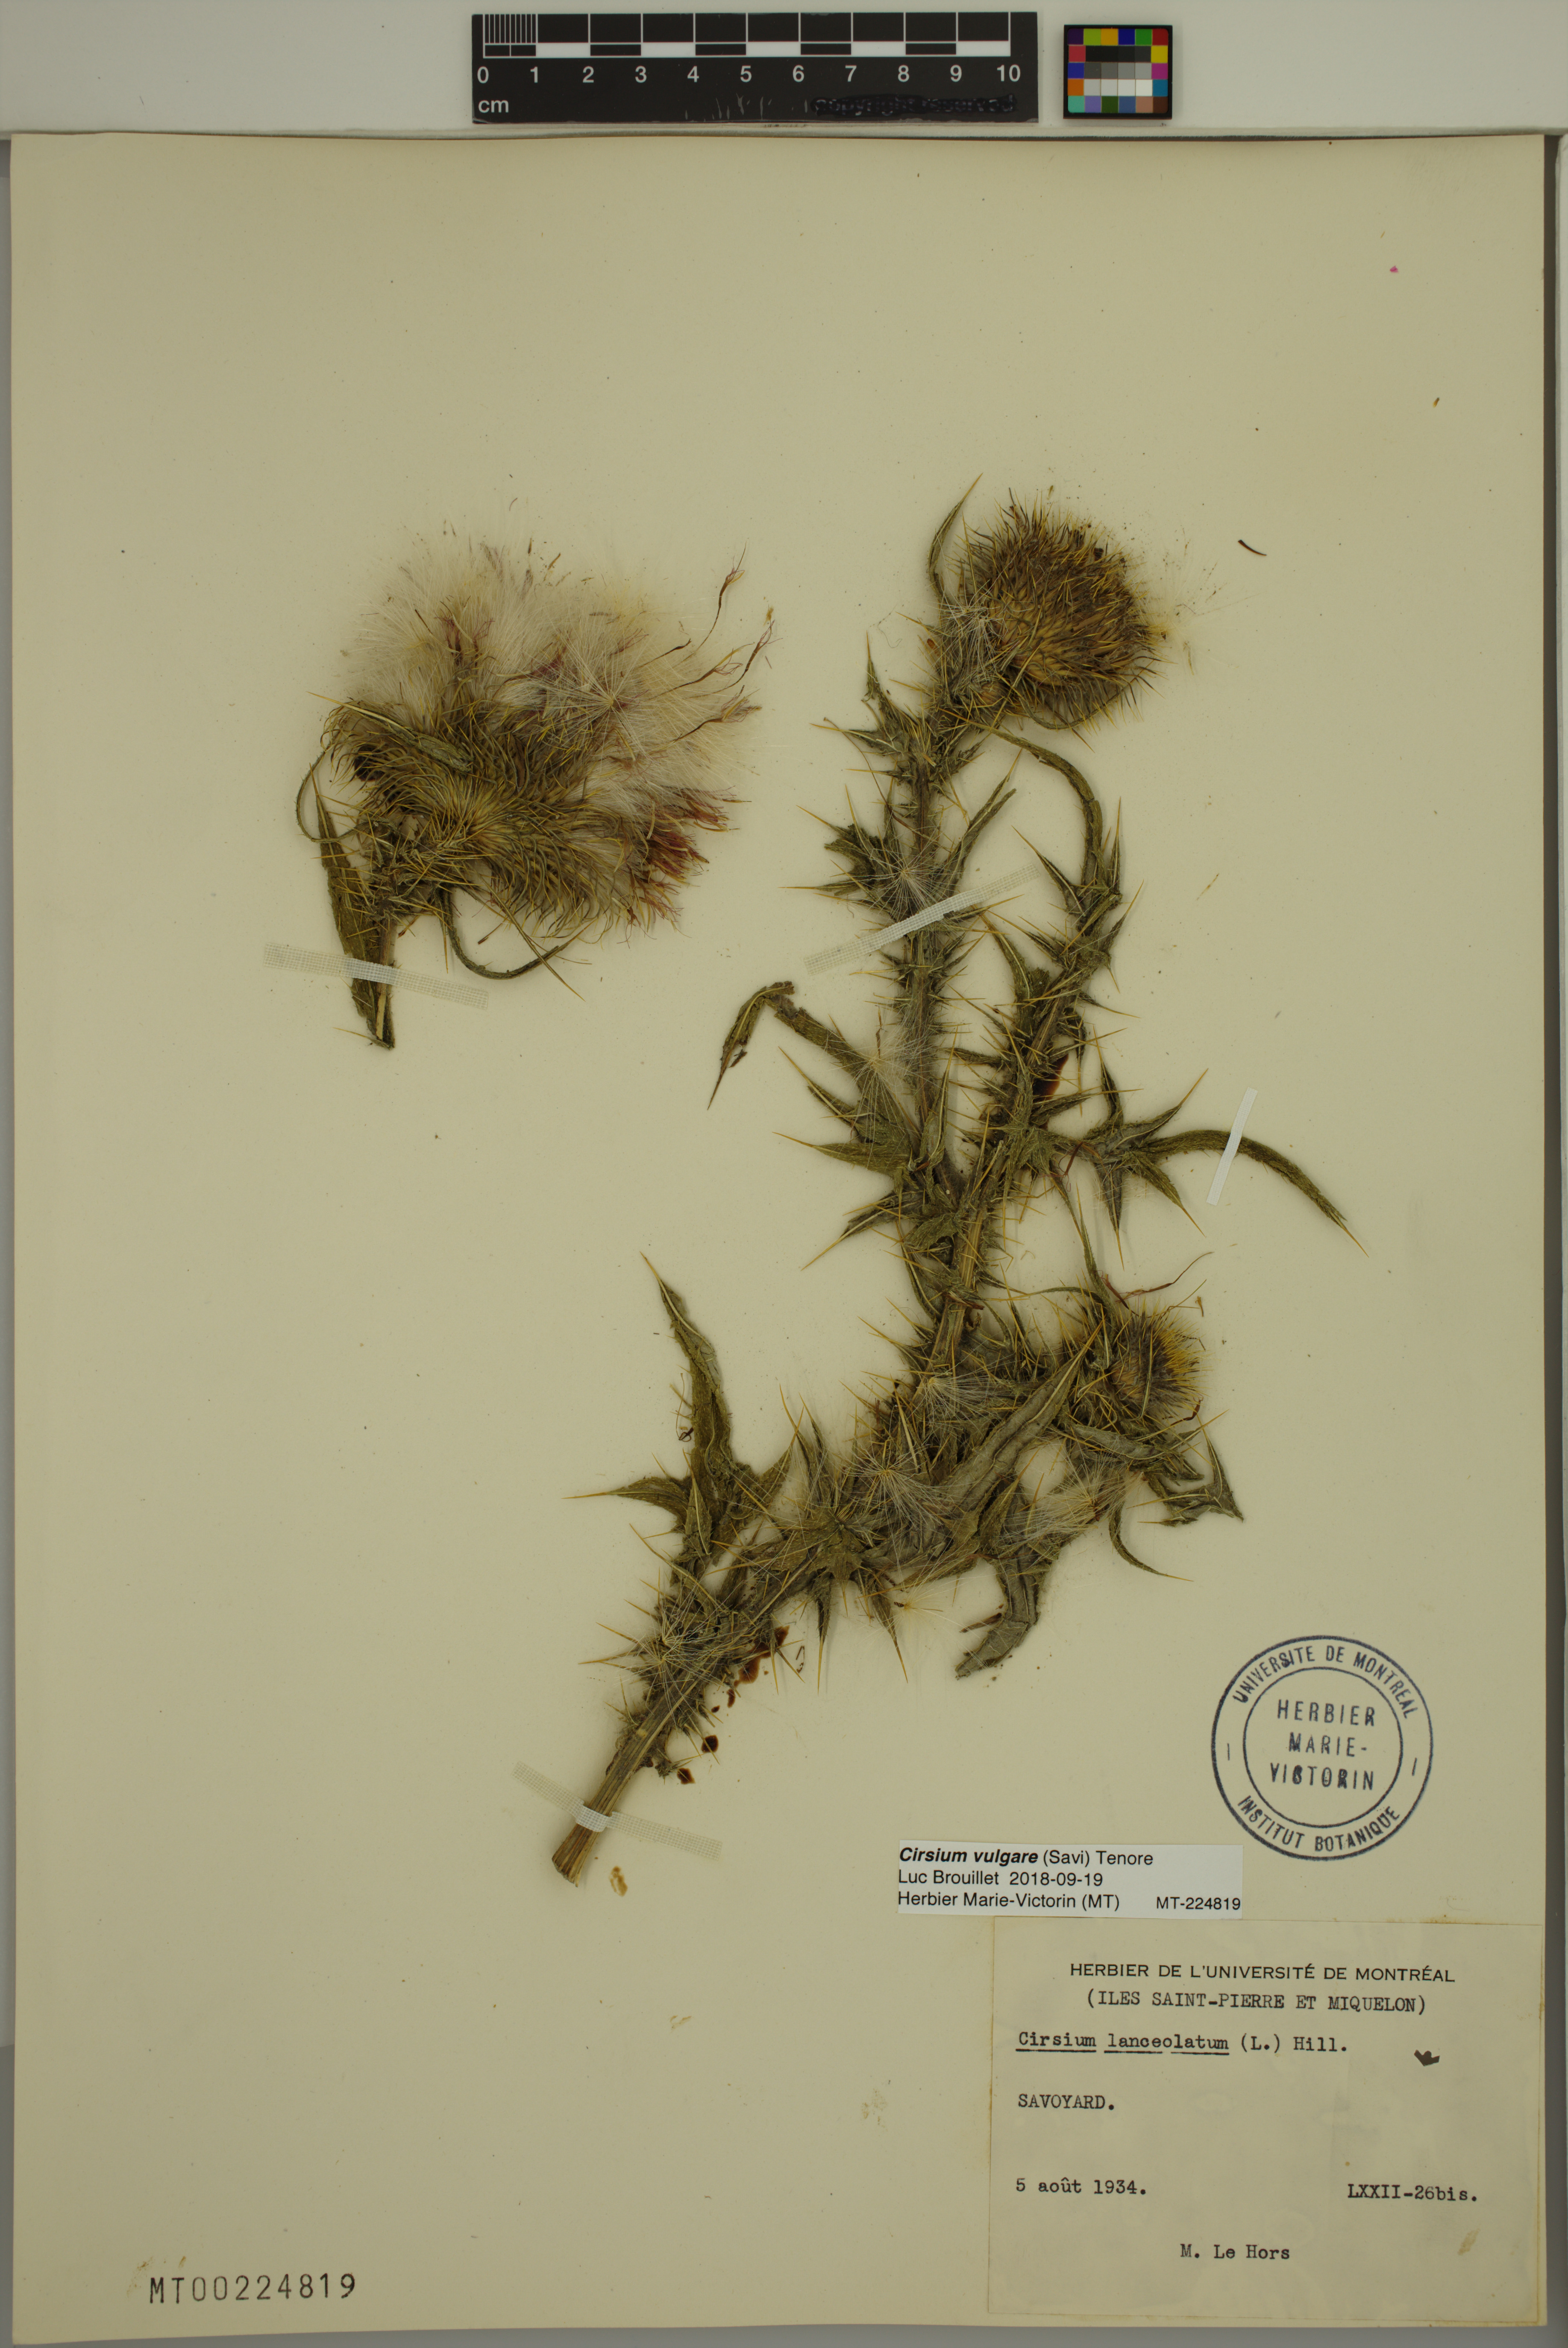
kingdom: Plantae
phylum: Tracheophyta
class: Magnoliopsida
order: Asterales
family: Asteraceae
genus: Cirsium
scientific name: Cirsium vulgare
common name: Bull thistle
